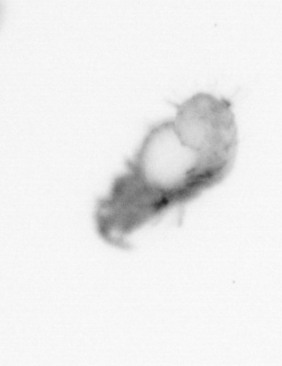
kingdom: Animalia
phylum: Annelida
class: Polychaeta
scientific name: Polychaeta
